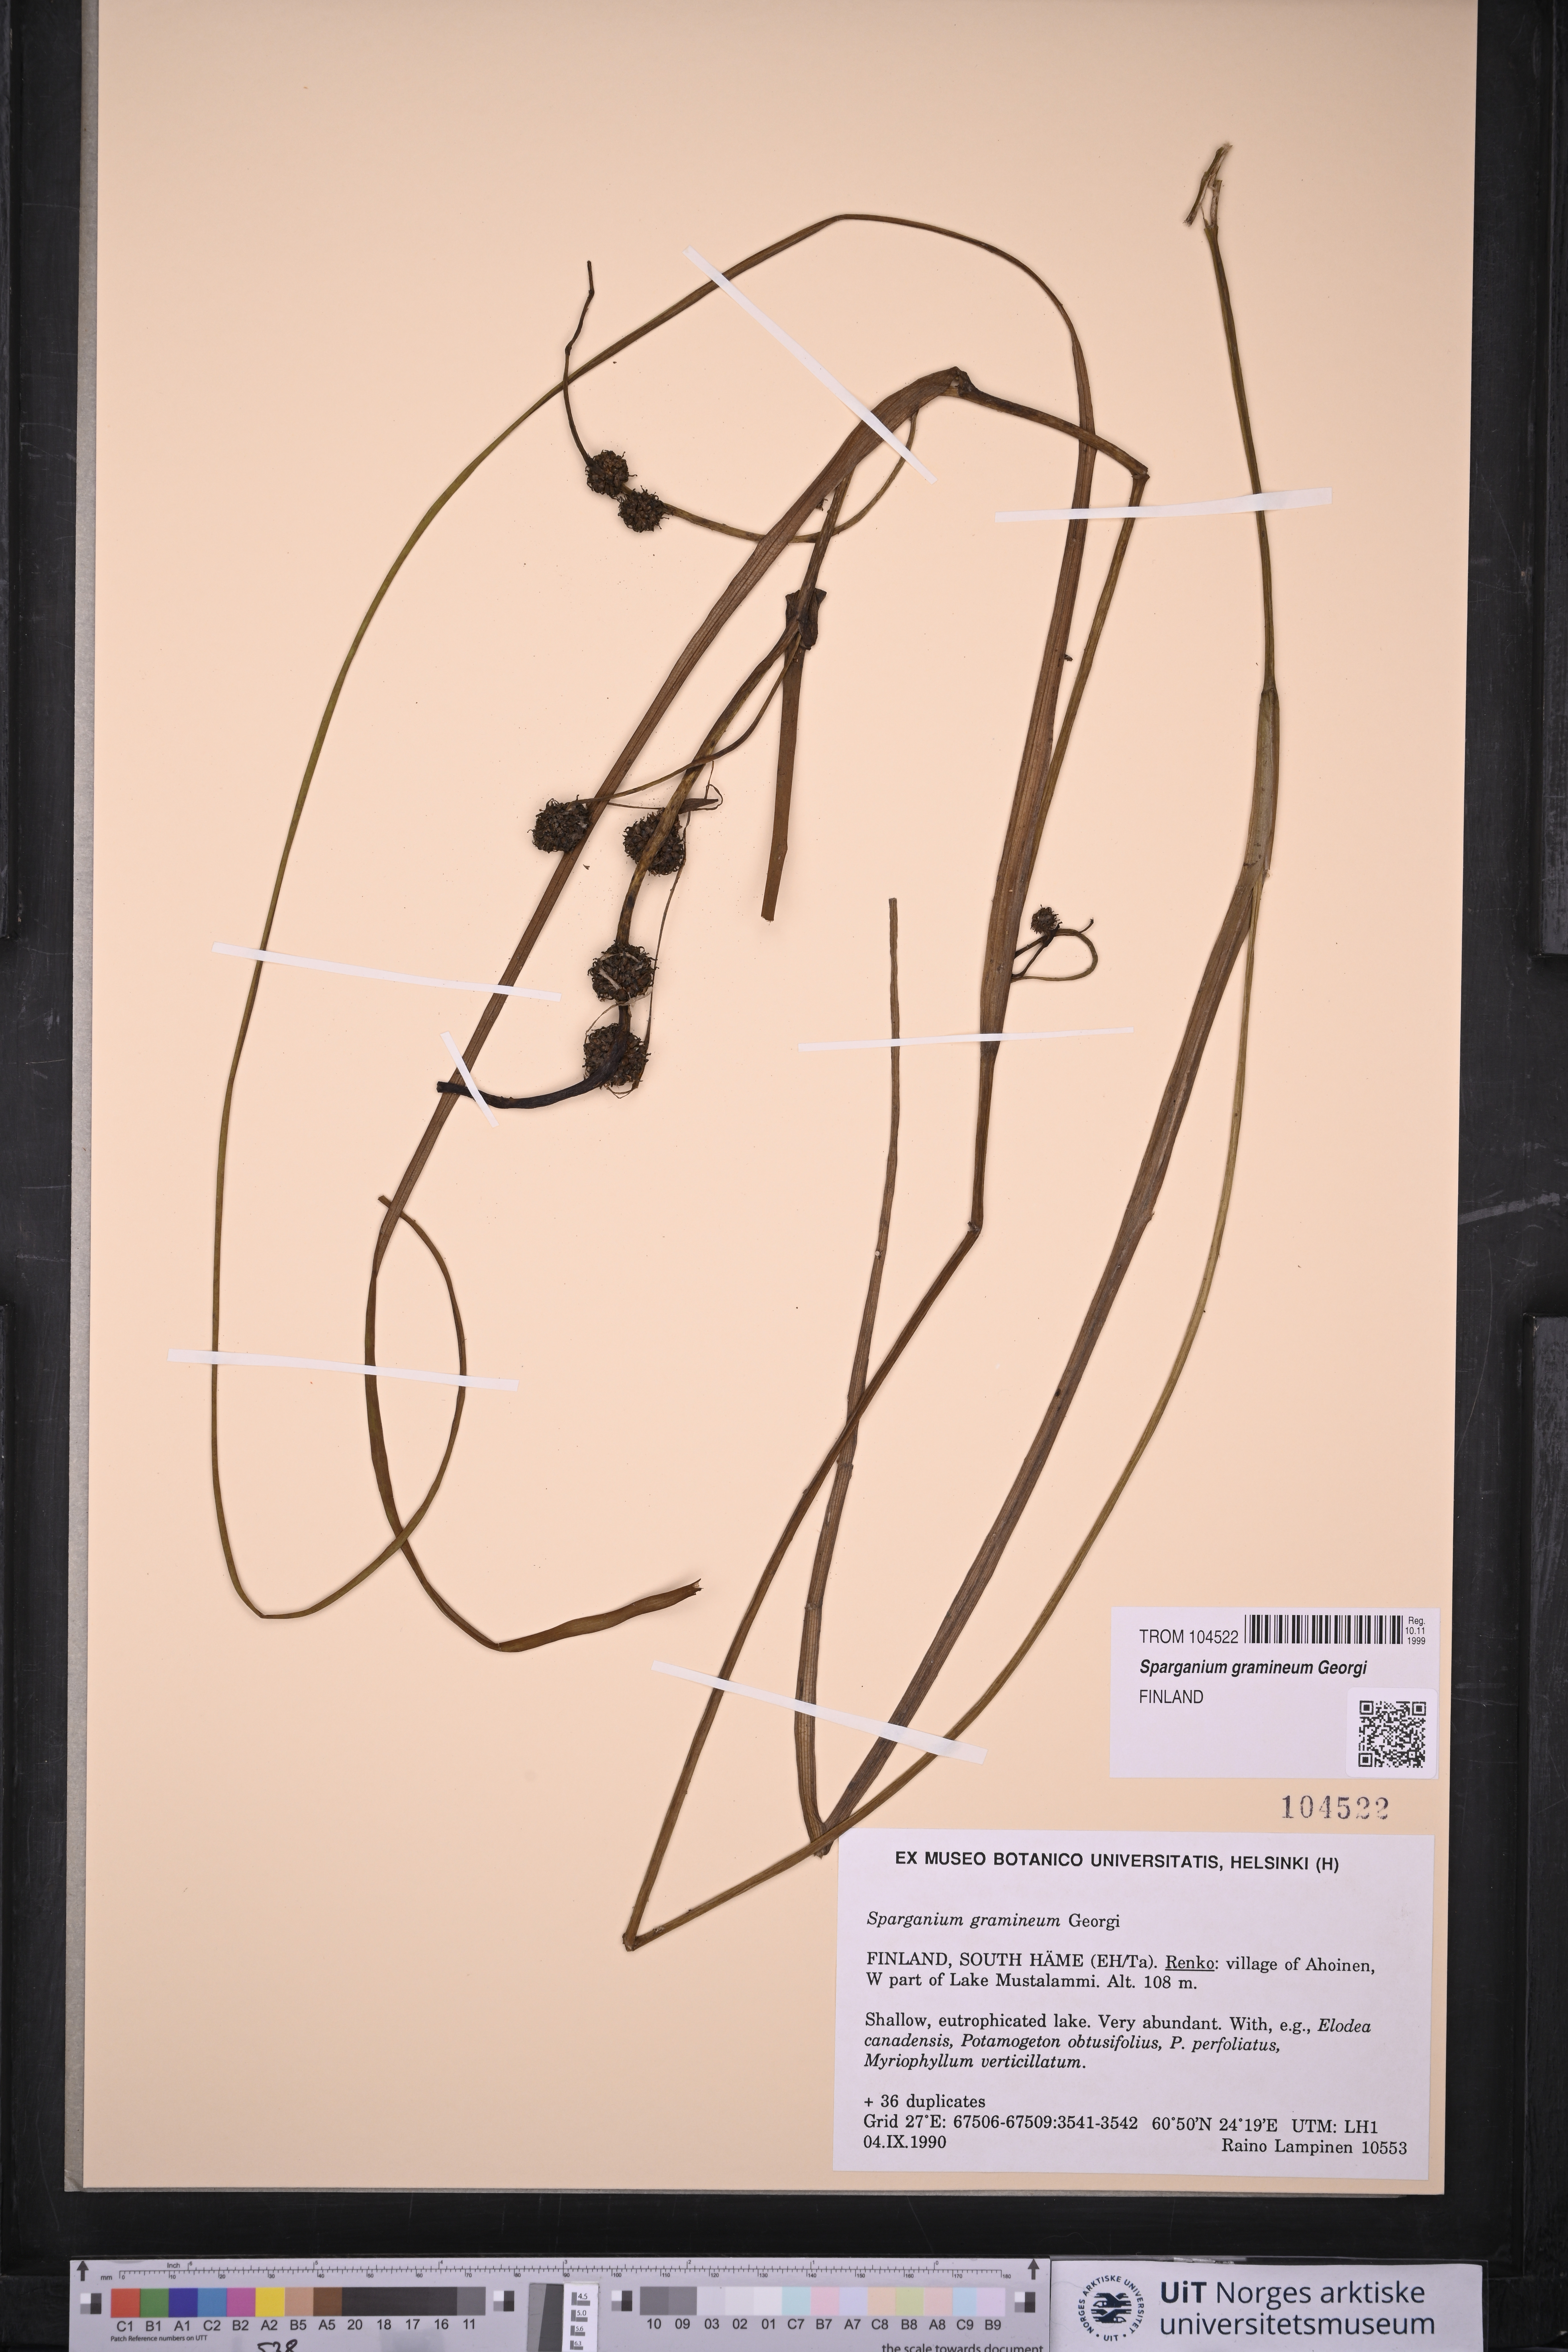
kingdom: Plantae
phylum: Tracheophyta
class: Liliopsida
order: Poales
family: Typhaceae
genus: Sparganium
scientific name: Sparganium gramineum
